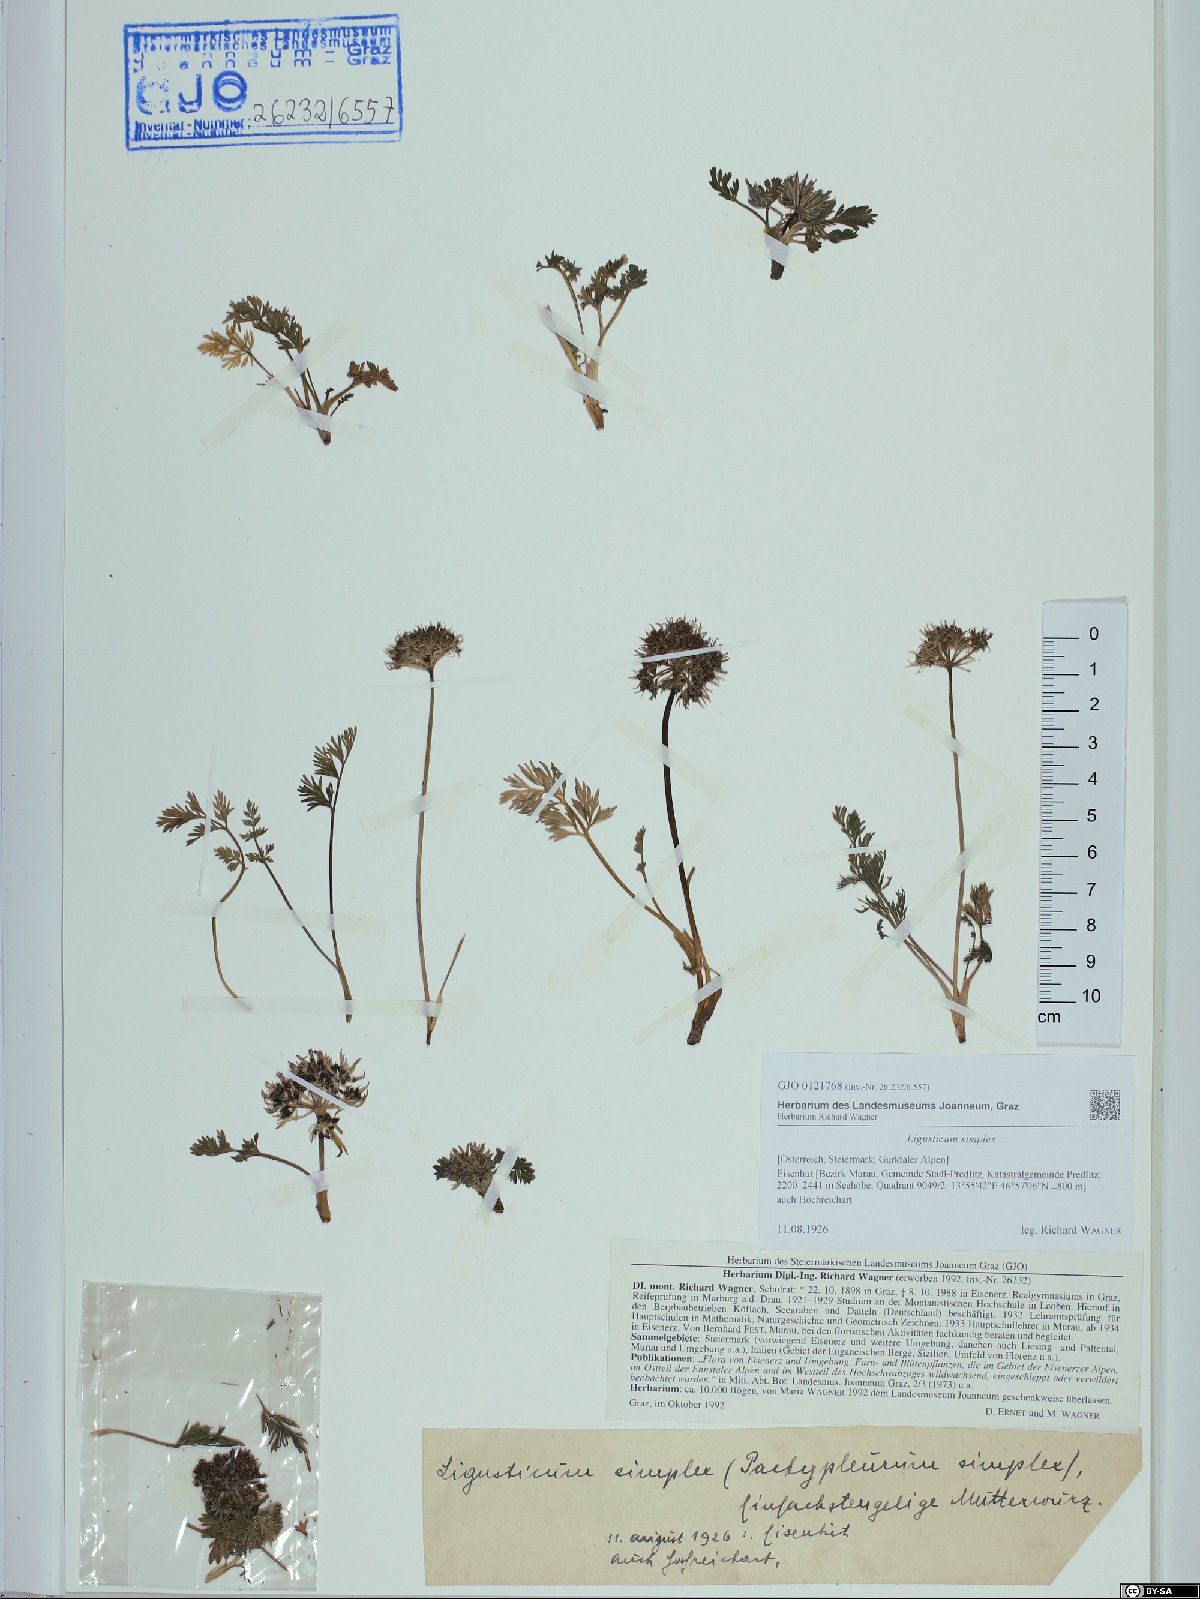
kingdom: Plantae
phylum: Tracheophyta
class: Magnoliopsida
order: Apiales
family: Apiaceae
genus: Pachypleurum
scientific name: Pachypleurum mutellinoides
